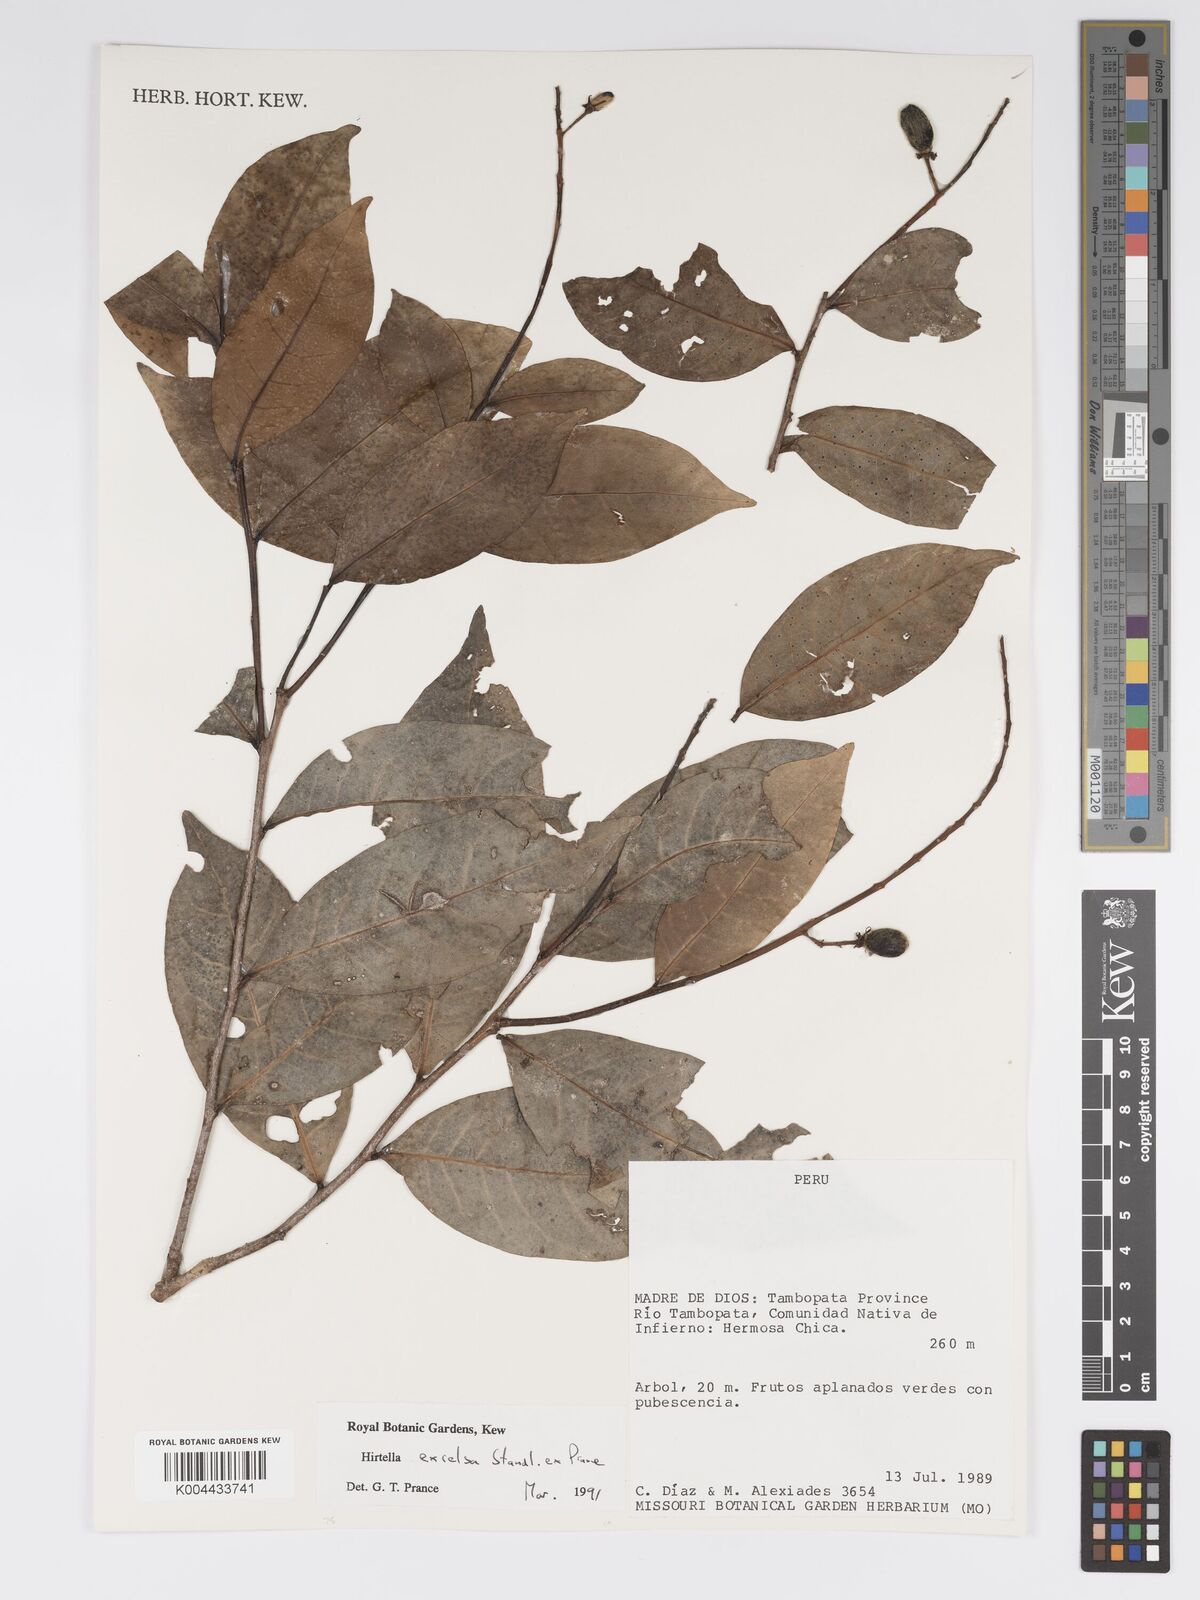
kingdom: Plantae
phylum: Tracheophyta
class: Magnoliopsida
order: Malpighiales
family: Chrysobalanaceae
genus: Hirtella
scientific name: Hirtella excelsa
